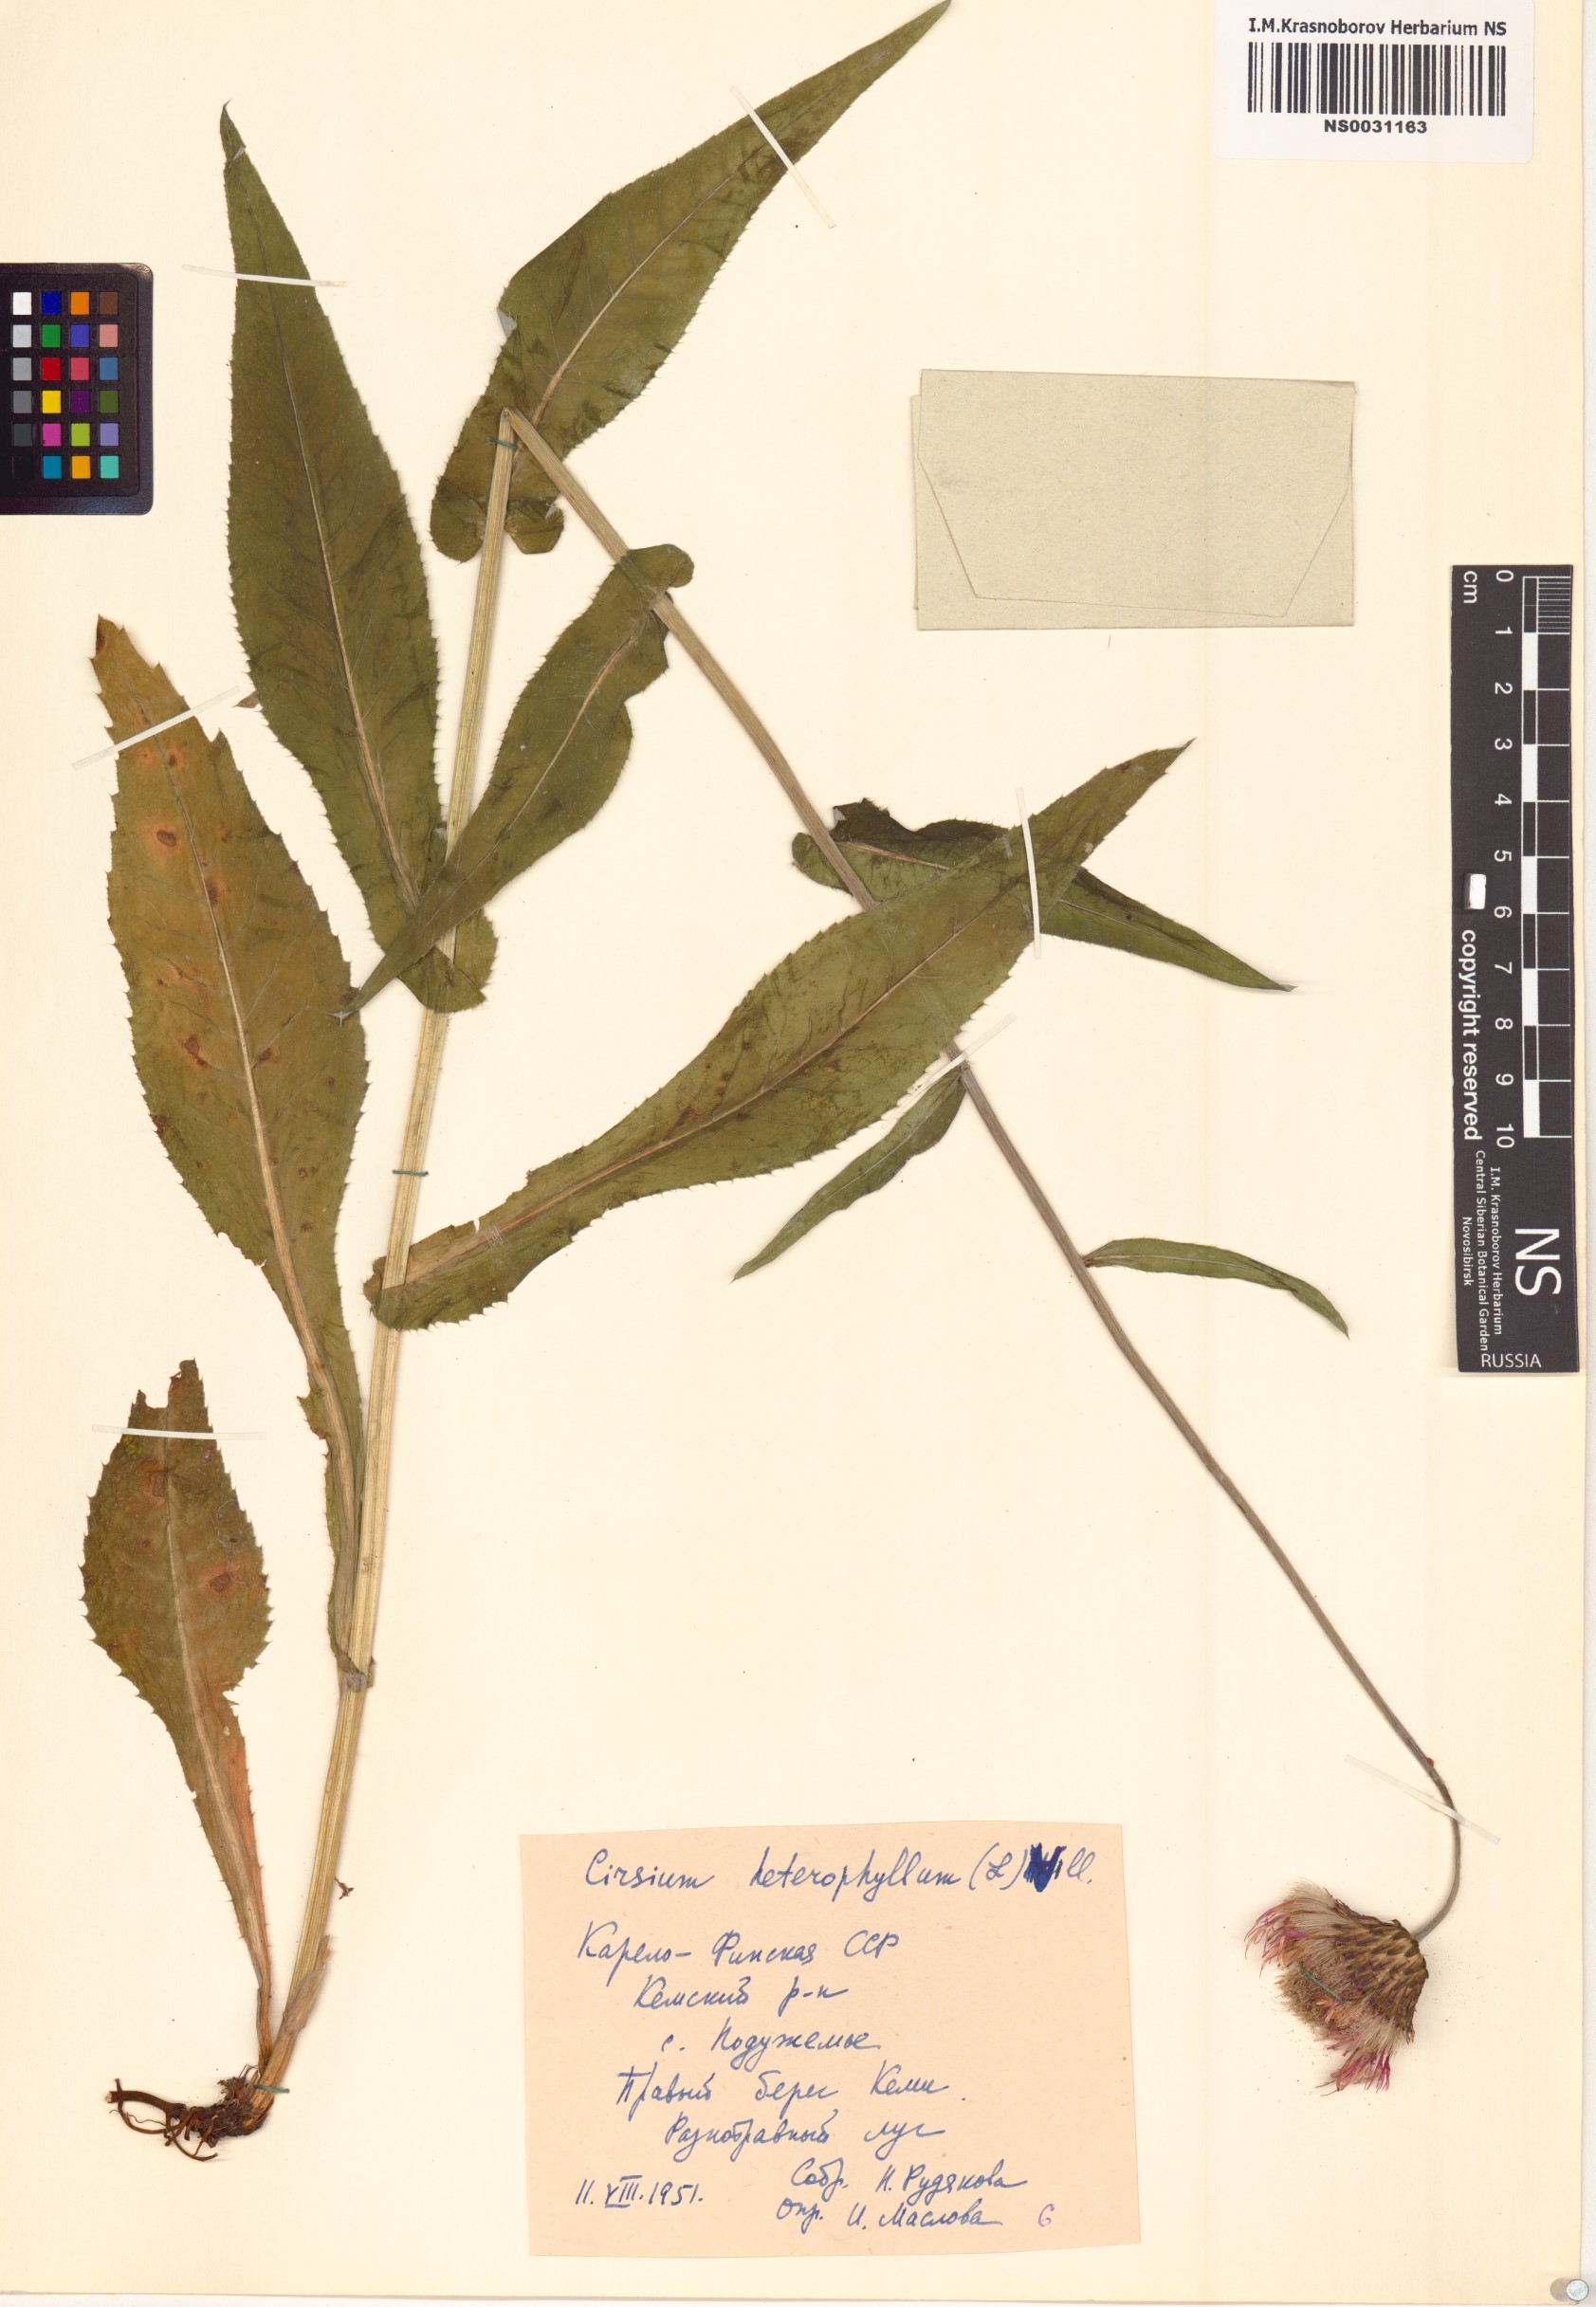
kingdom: Plantae
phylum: Tracheophyta
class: Magnoliopsida
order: Asterales
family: Asteraceae
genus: Cirsium
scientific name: Cirsium heterophyllum
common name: Melancholy thistle
